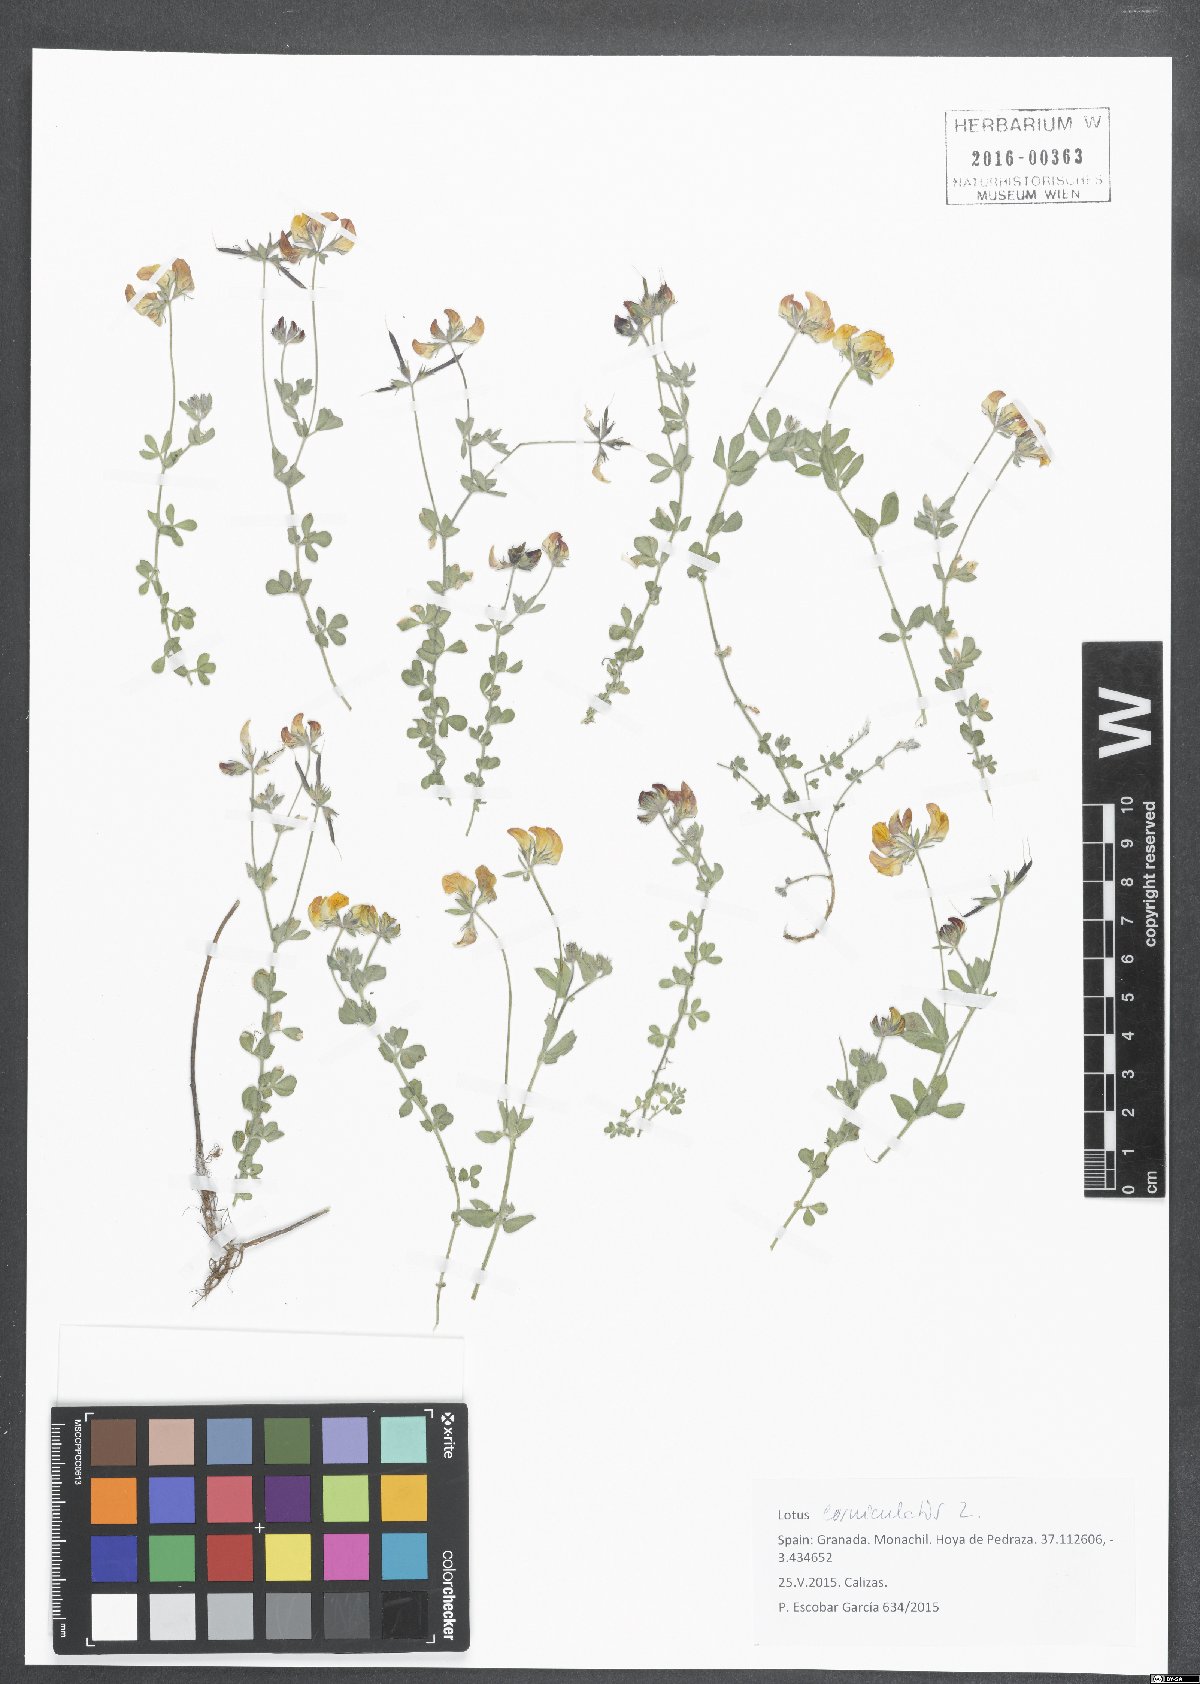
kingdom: Plantae
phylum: Tracheophyta
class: Magnoliopsida
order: Fabales
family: Fabaceae
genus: Lotus
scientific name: Lotus corniculatus
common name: Common bird's-foot-trefoil
